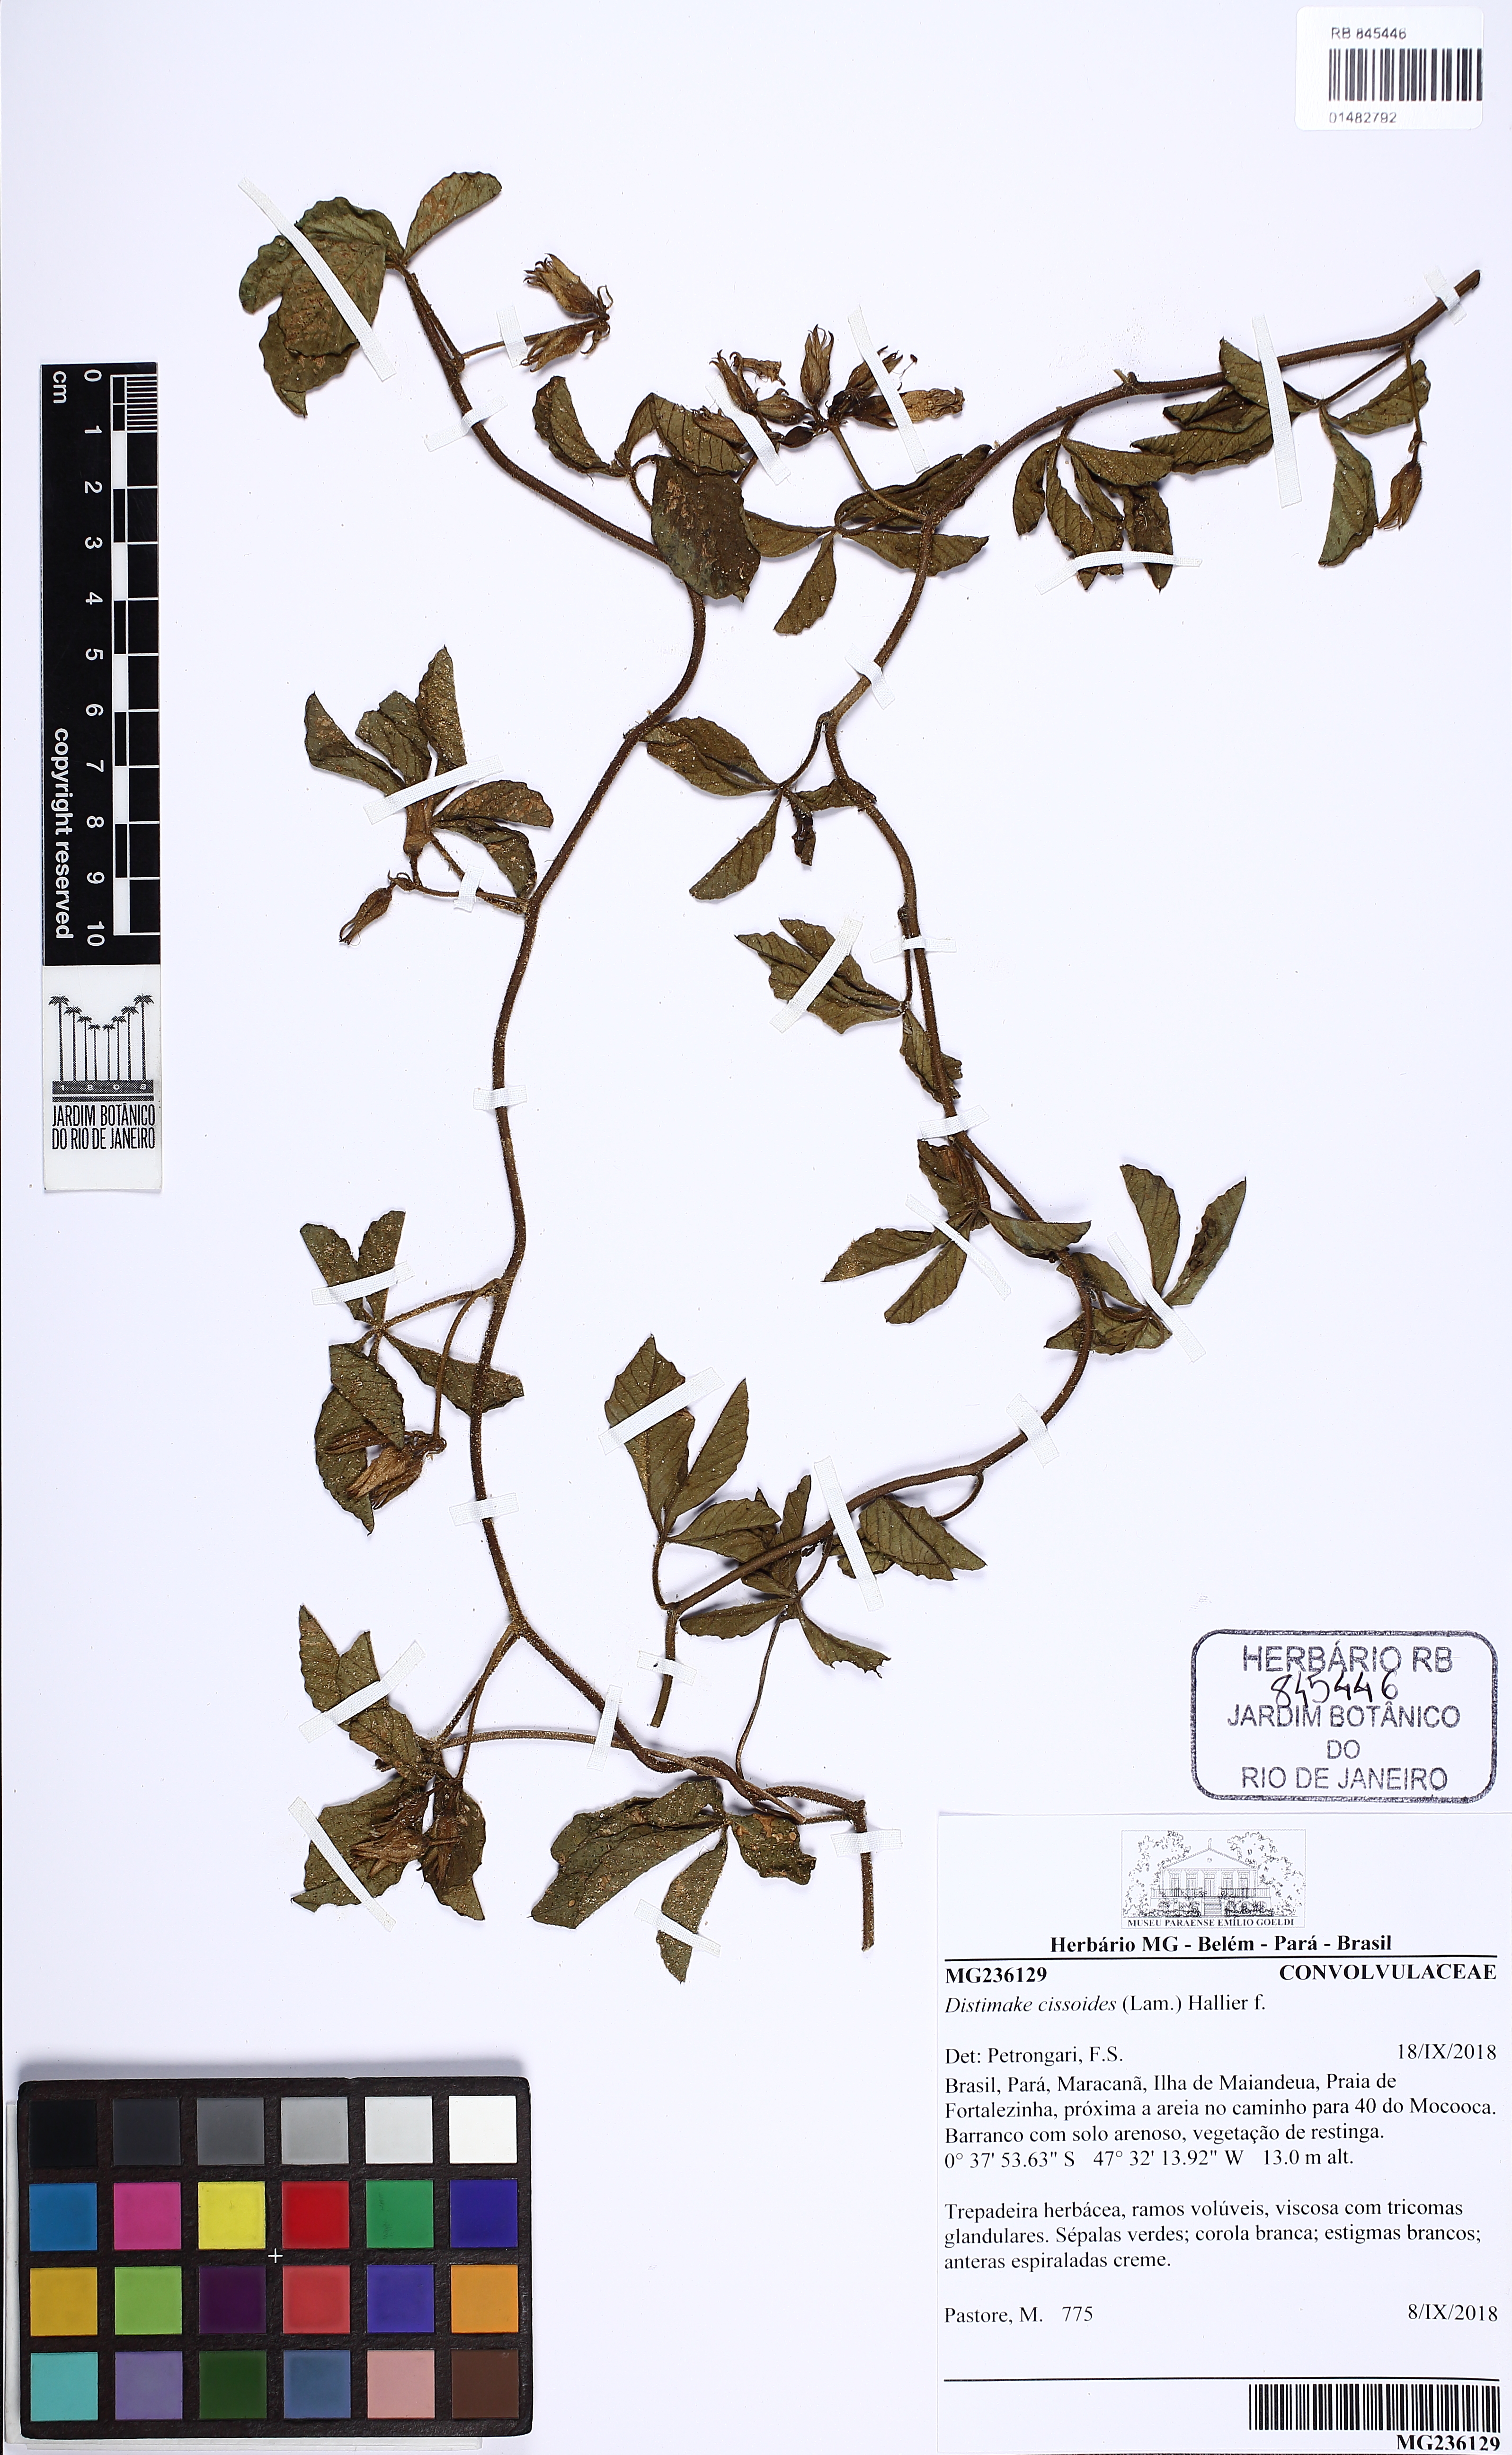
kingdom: Plantae
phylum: Tracheophyta
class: Magnoliopsida
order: Solanales
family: Convolvulaceae
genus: Distimake
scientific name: Distimake cissoides
